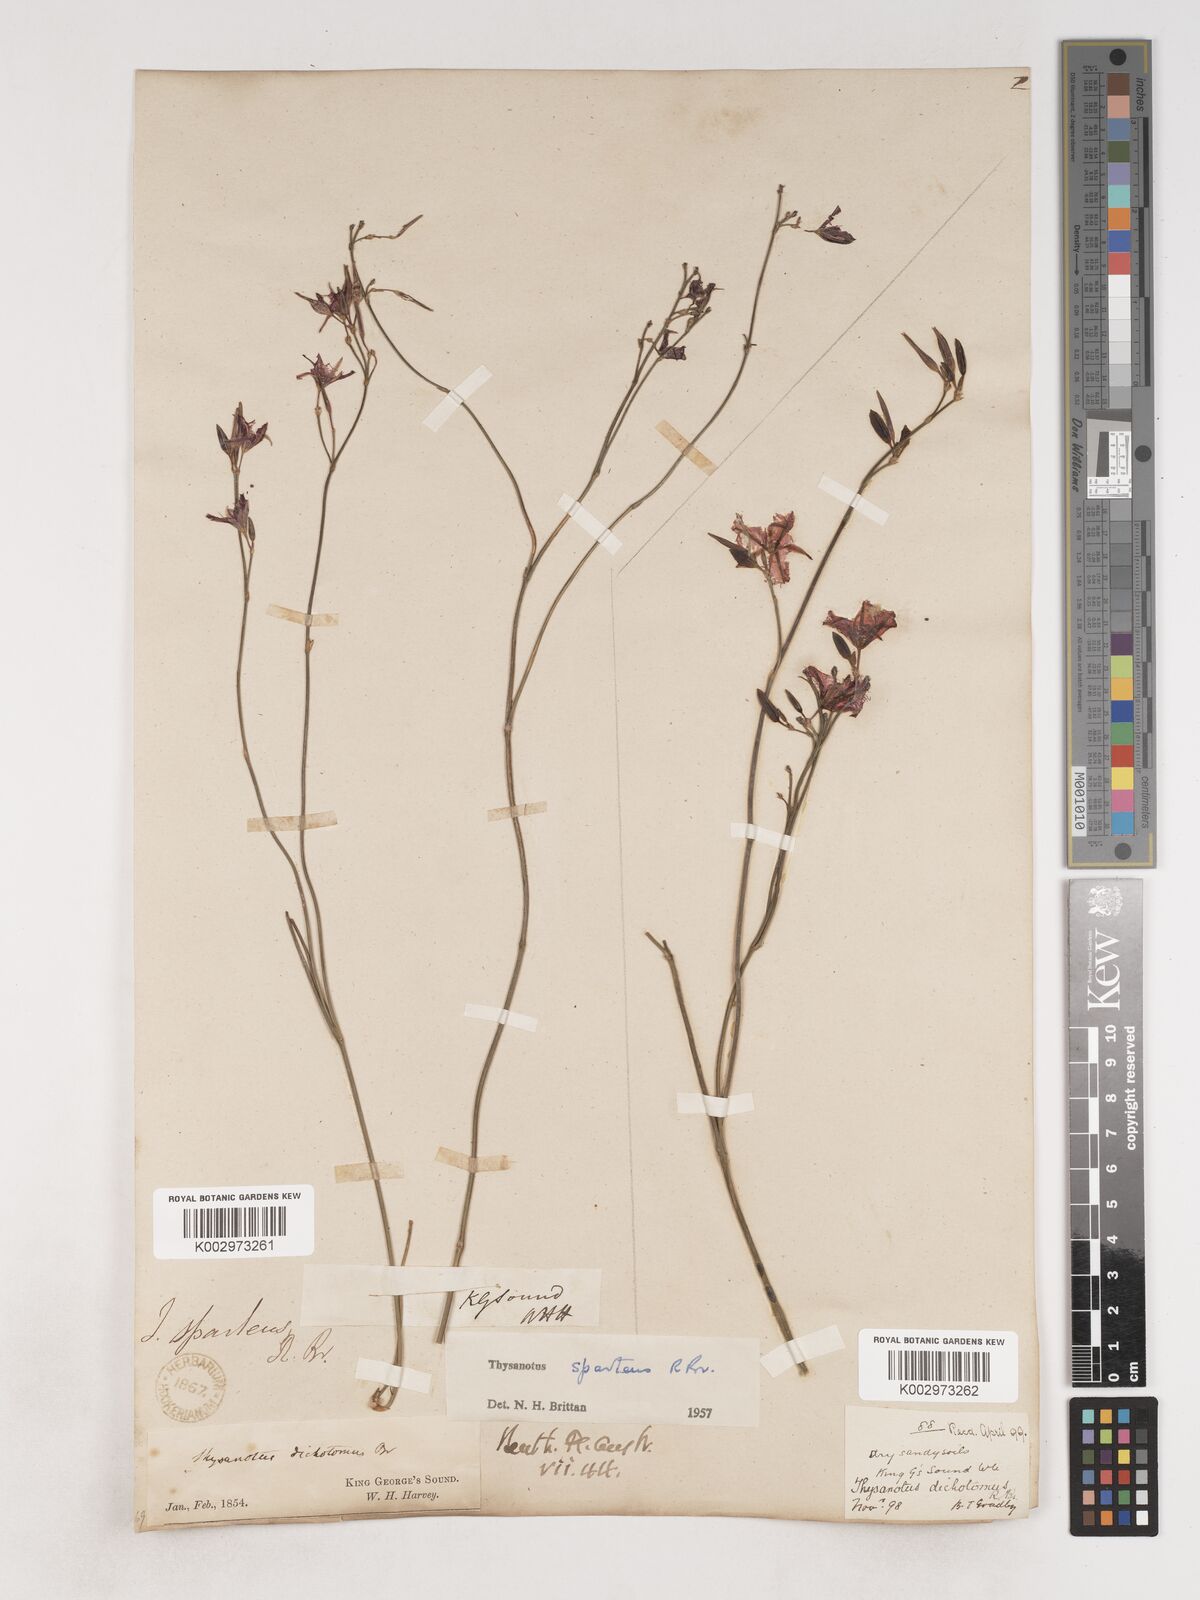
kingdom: Plantae
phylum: Tracheophyta
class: Liliopsida
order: Asparagales
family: Asparagaceae
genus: Thysanotus
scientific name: Thysanotus sparteus
